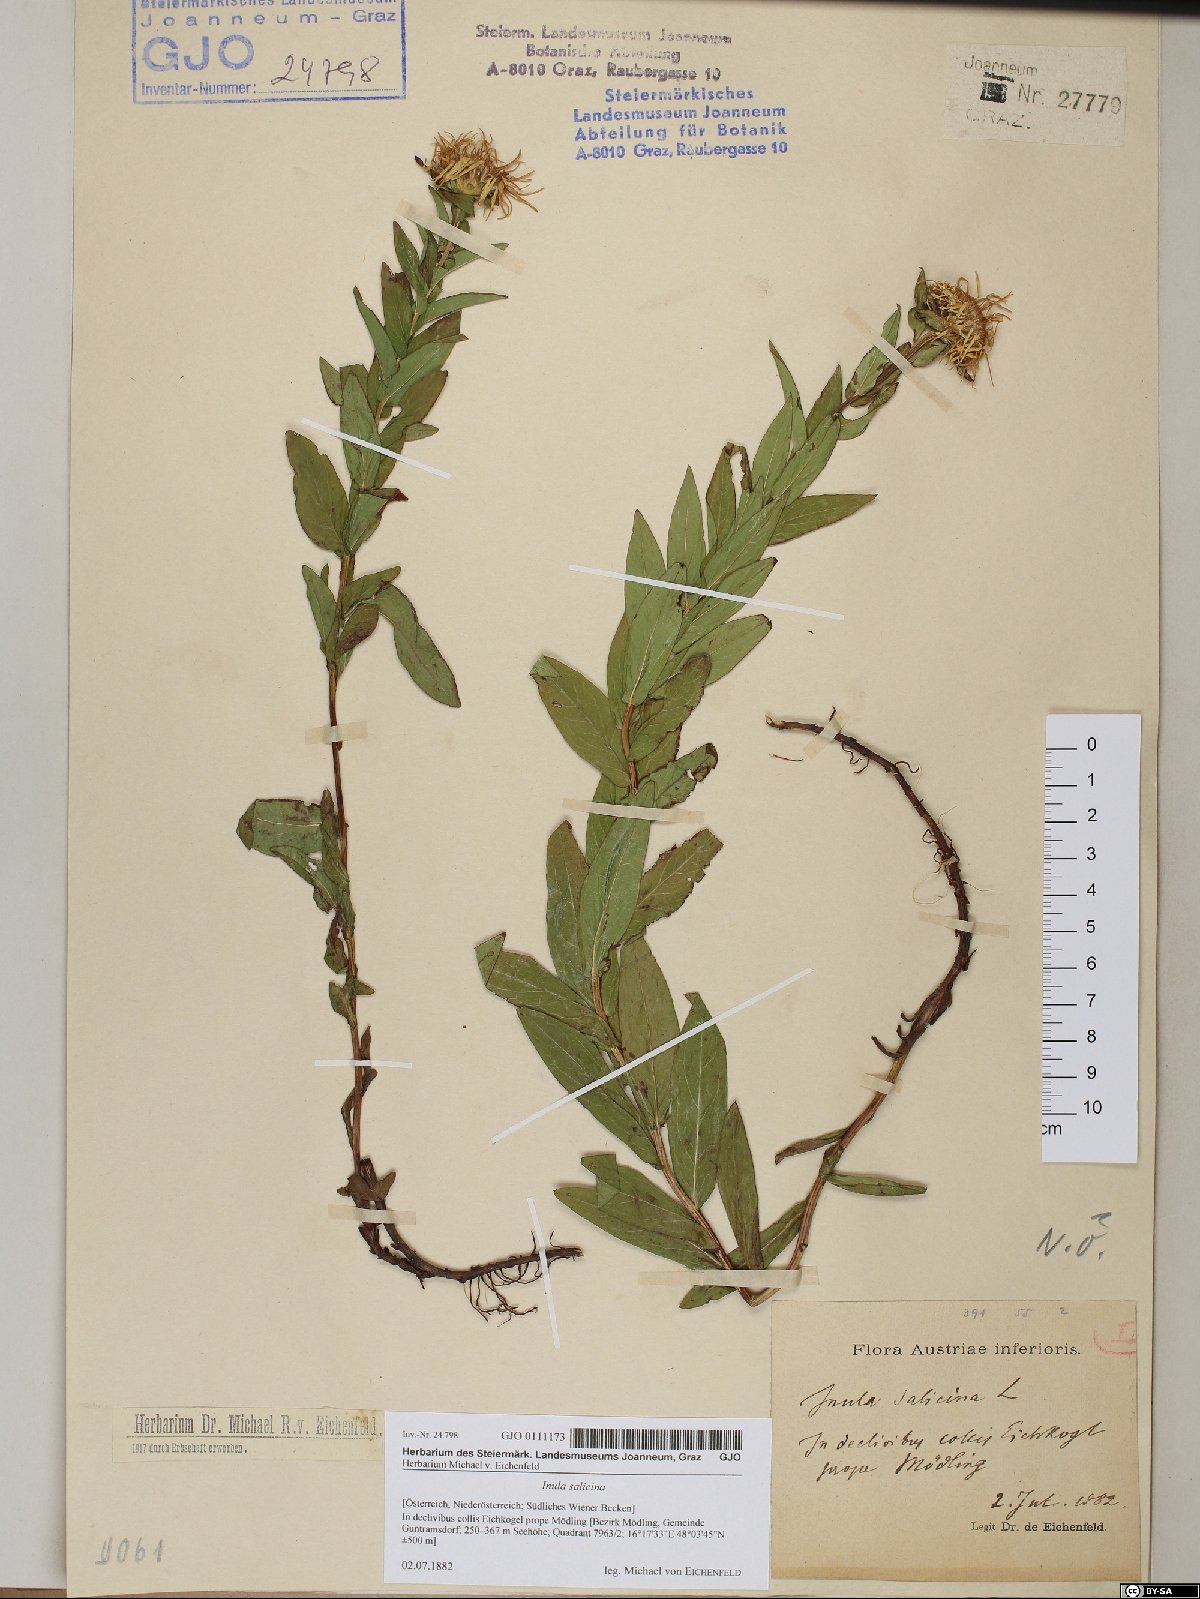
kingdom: Plantae
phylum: Tracheophyta
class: Magnoliopsida
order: Asterales
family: Asteraceae
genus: Pentanema
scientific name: Pentanema salicinum
